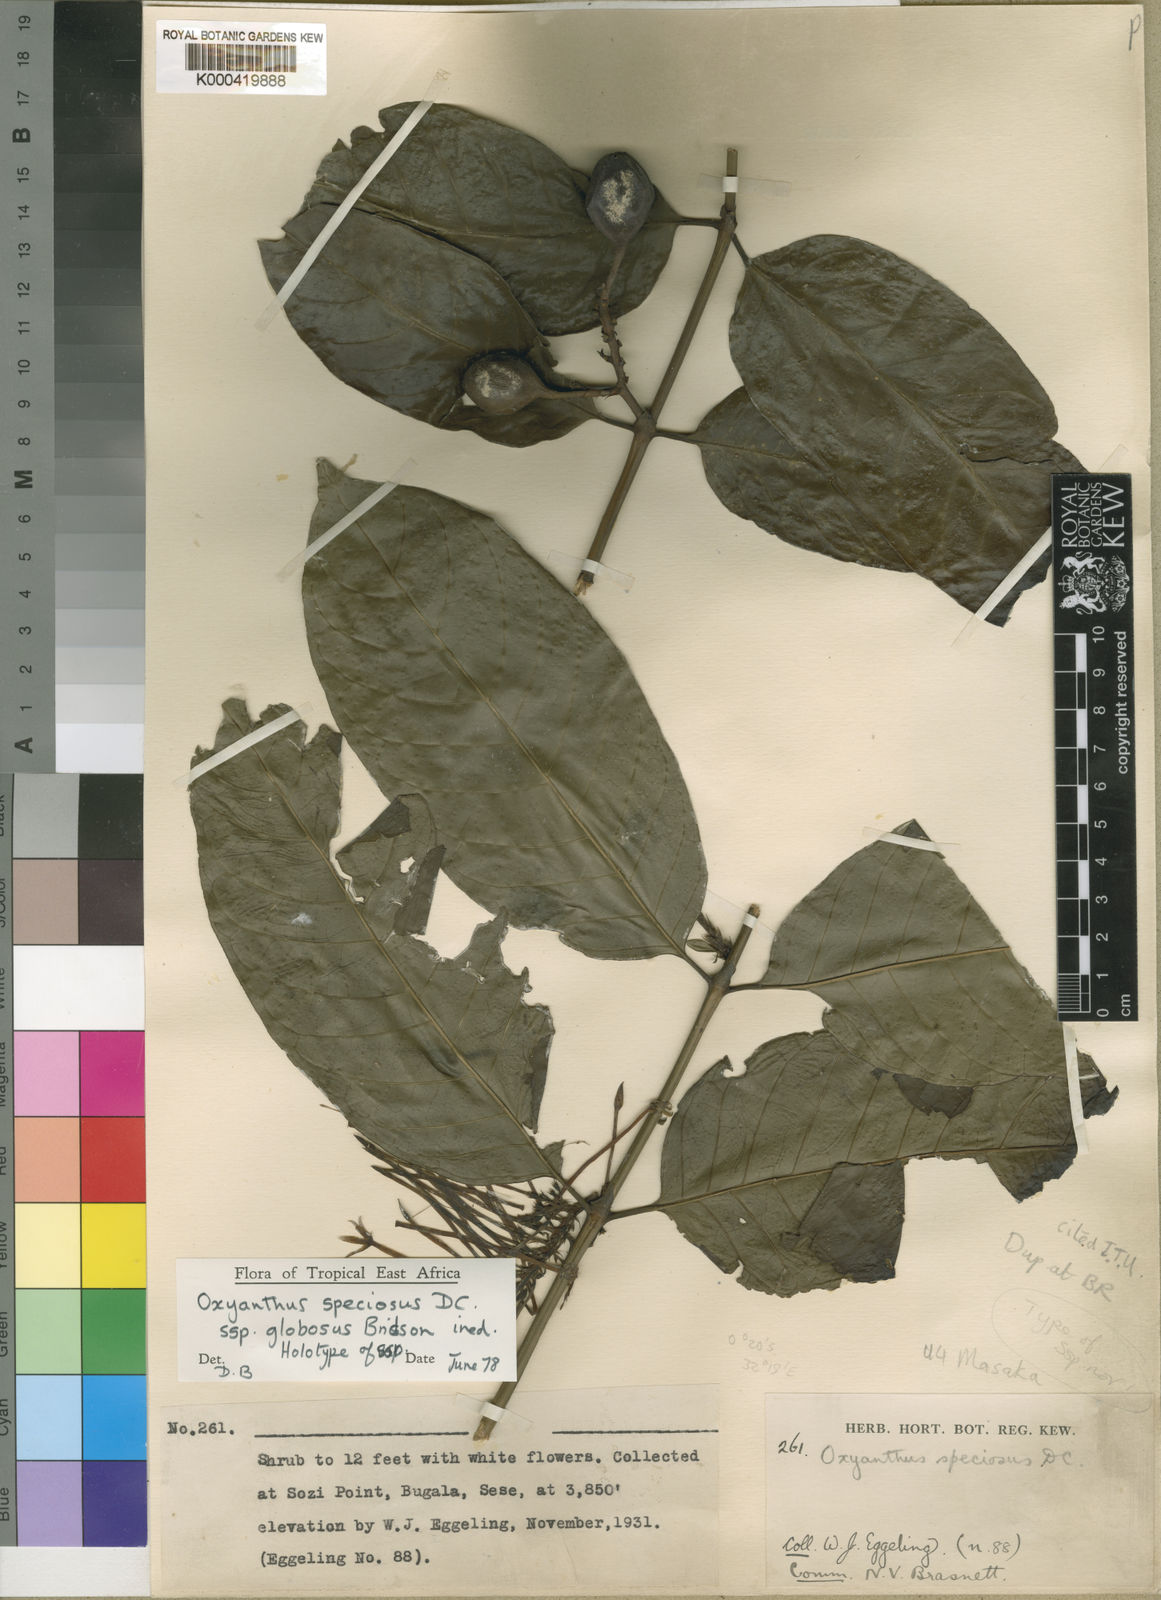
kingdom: Plantae
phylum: Tracheophyta
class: Magnoliopsida
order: Gentianales
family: Rubiaceae
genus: Oxyanthus
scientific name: Oxyanthus speciosus
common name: Whipstick loquat
